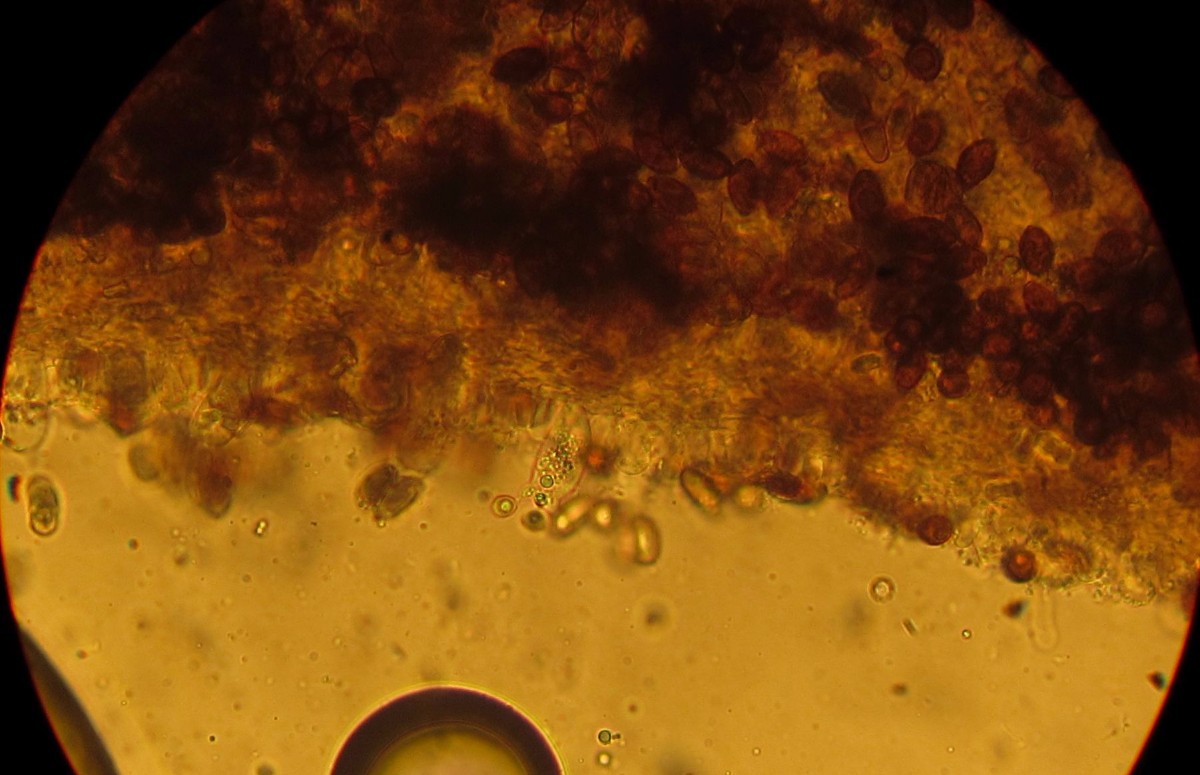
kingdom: Fungi
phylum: Basidiomycota
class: Agaricomycetes
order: Agaricales
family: Bolbitiaceae
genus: Panaeolina
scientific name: Panaeolina foenisecii
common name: høslætsvamp
